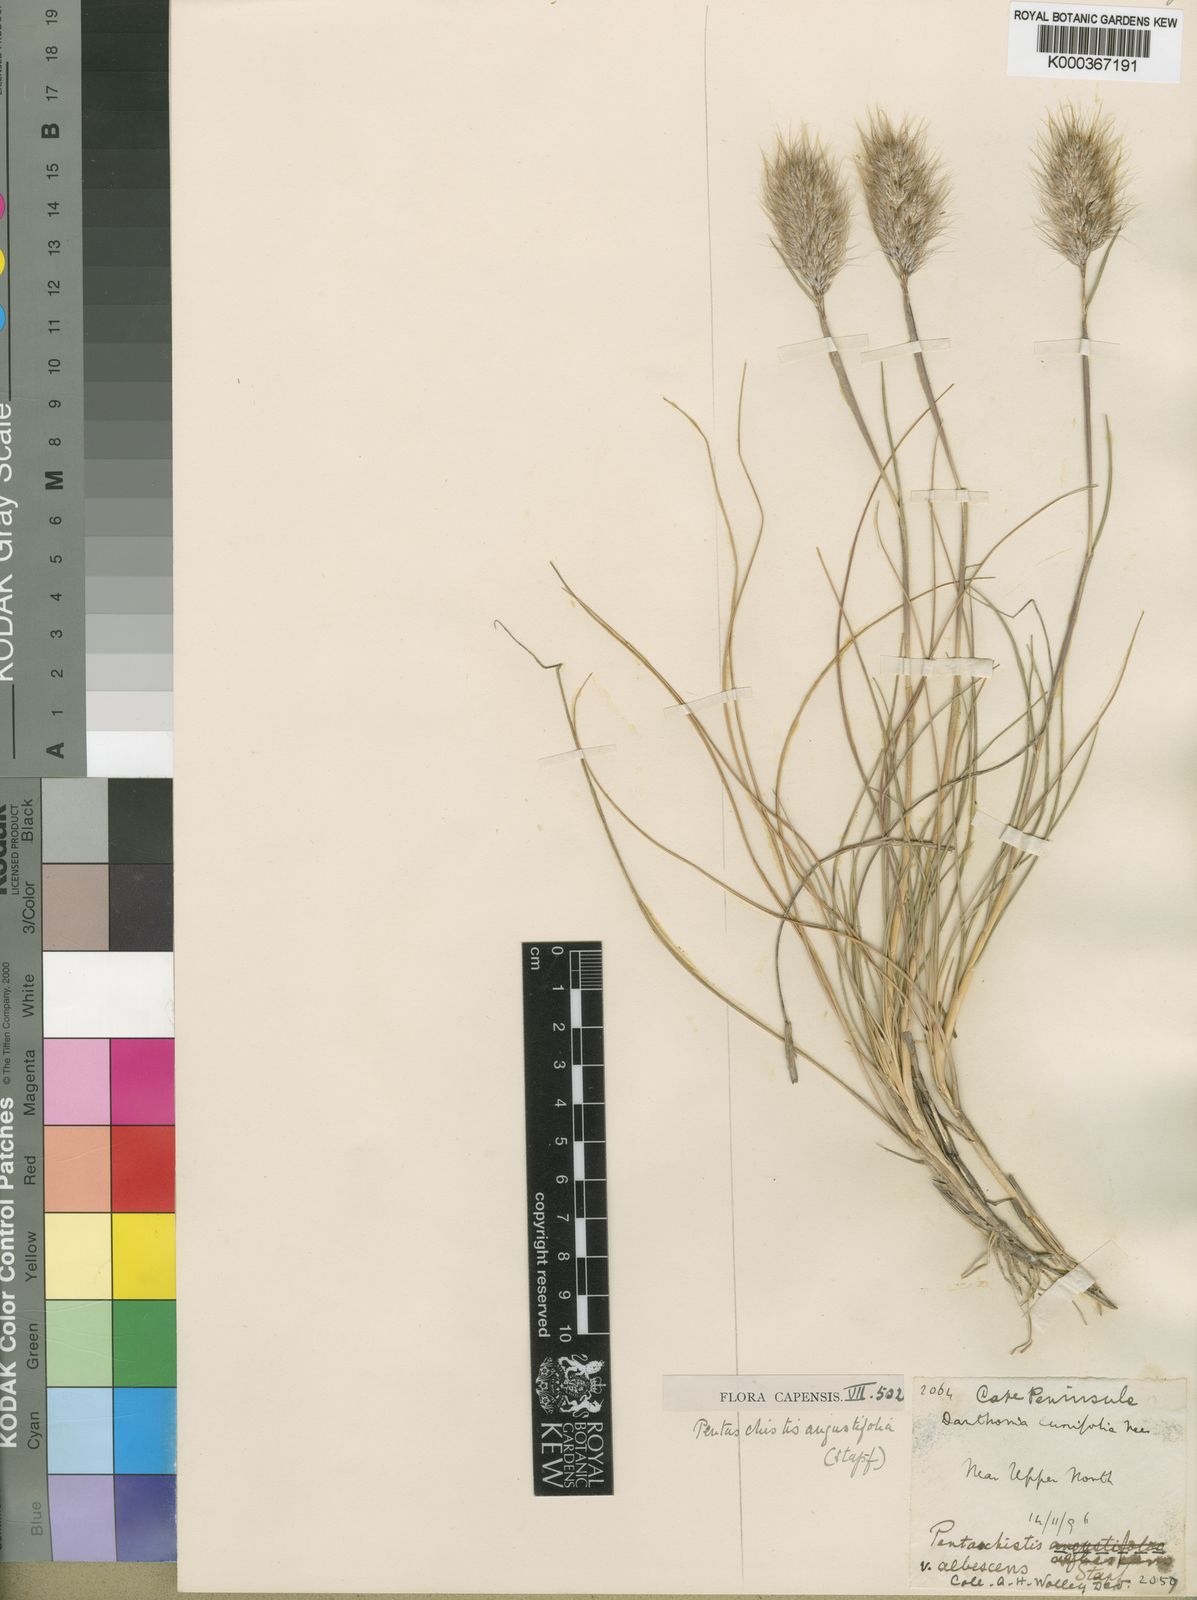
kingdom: Plantae
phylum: Tracheophyta
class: Liliopsida
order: Poales
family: Poaceae
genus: Pentameris
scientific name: Pentameris pallida
